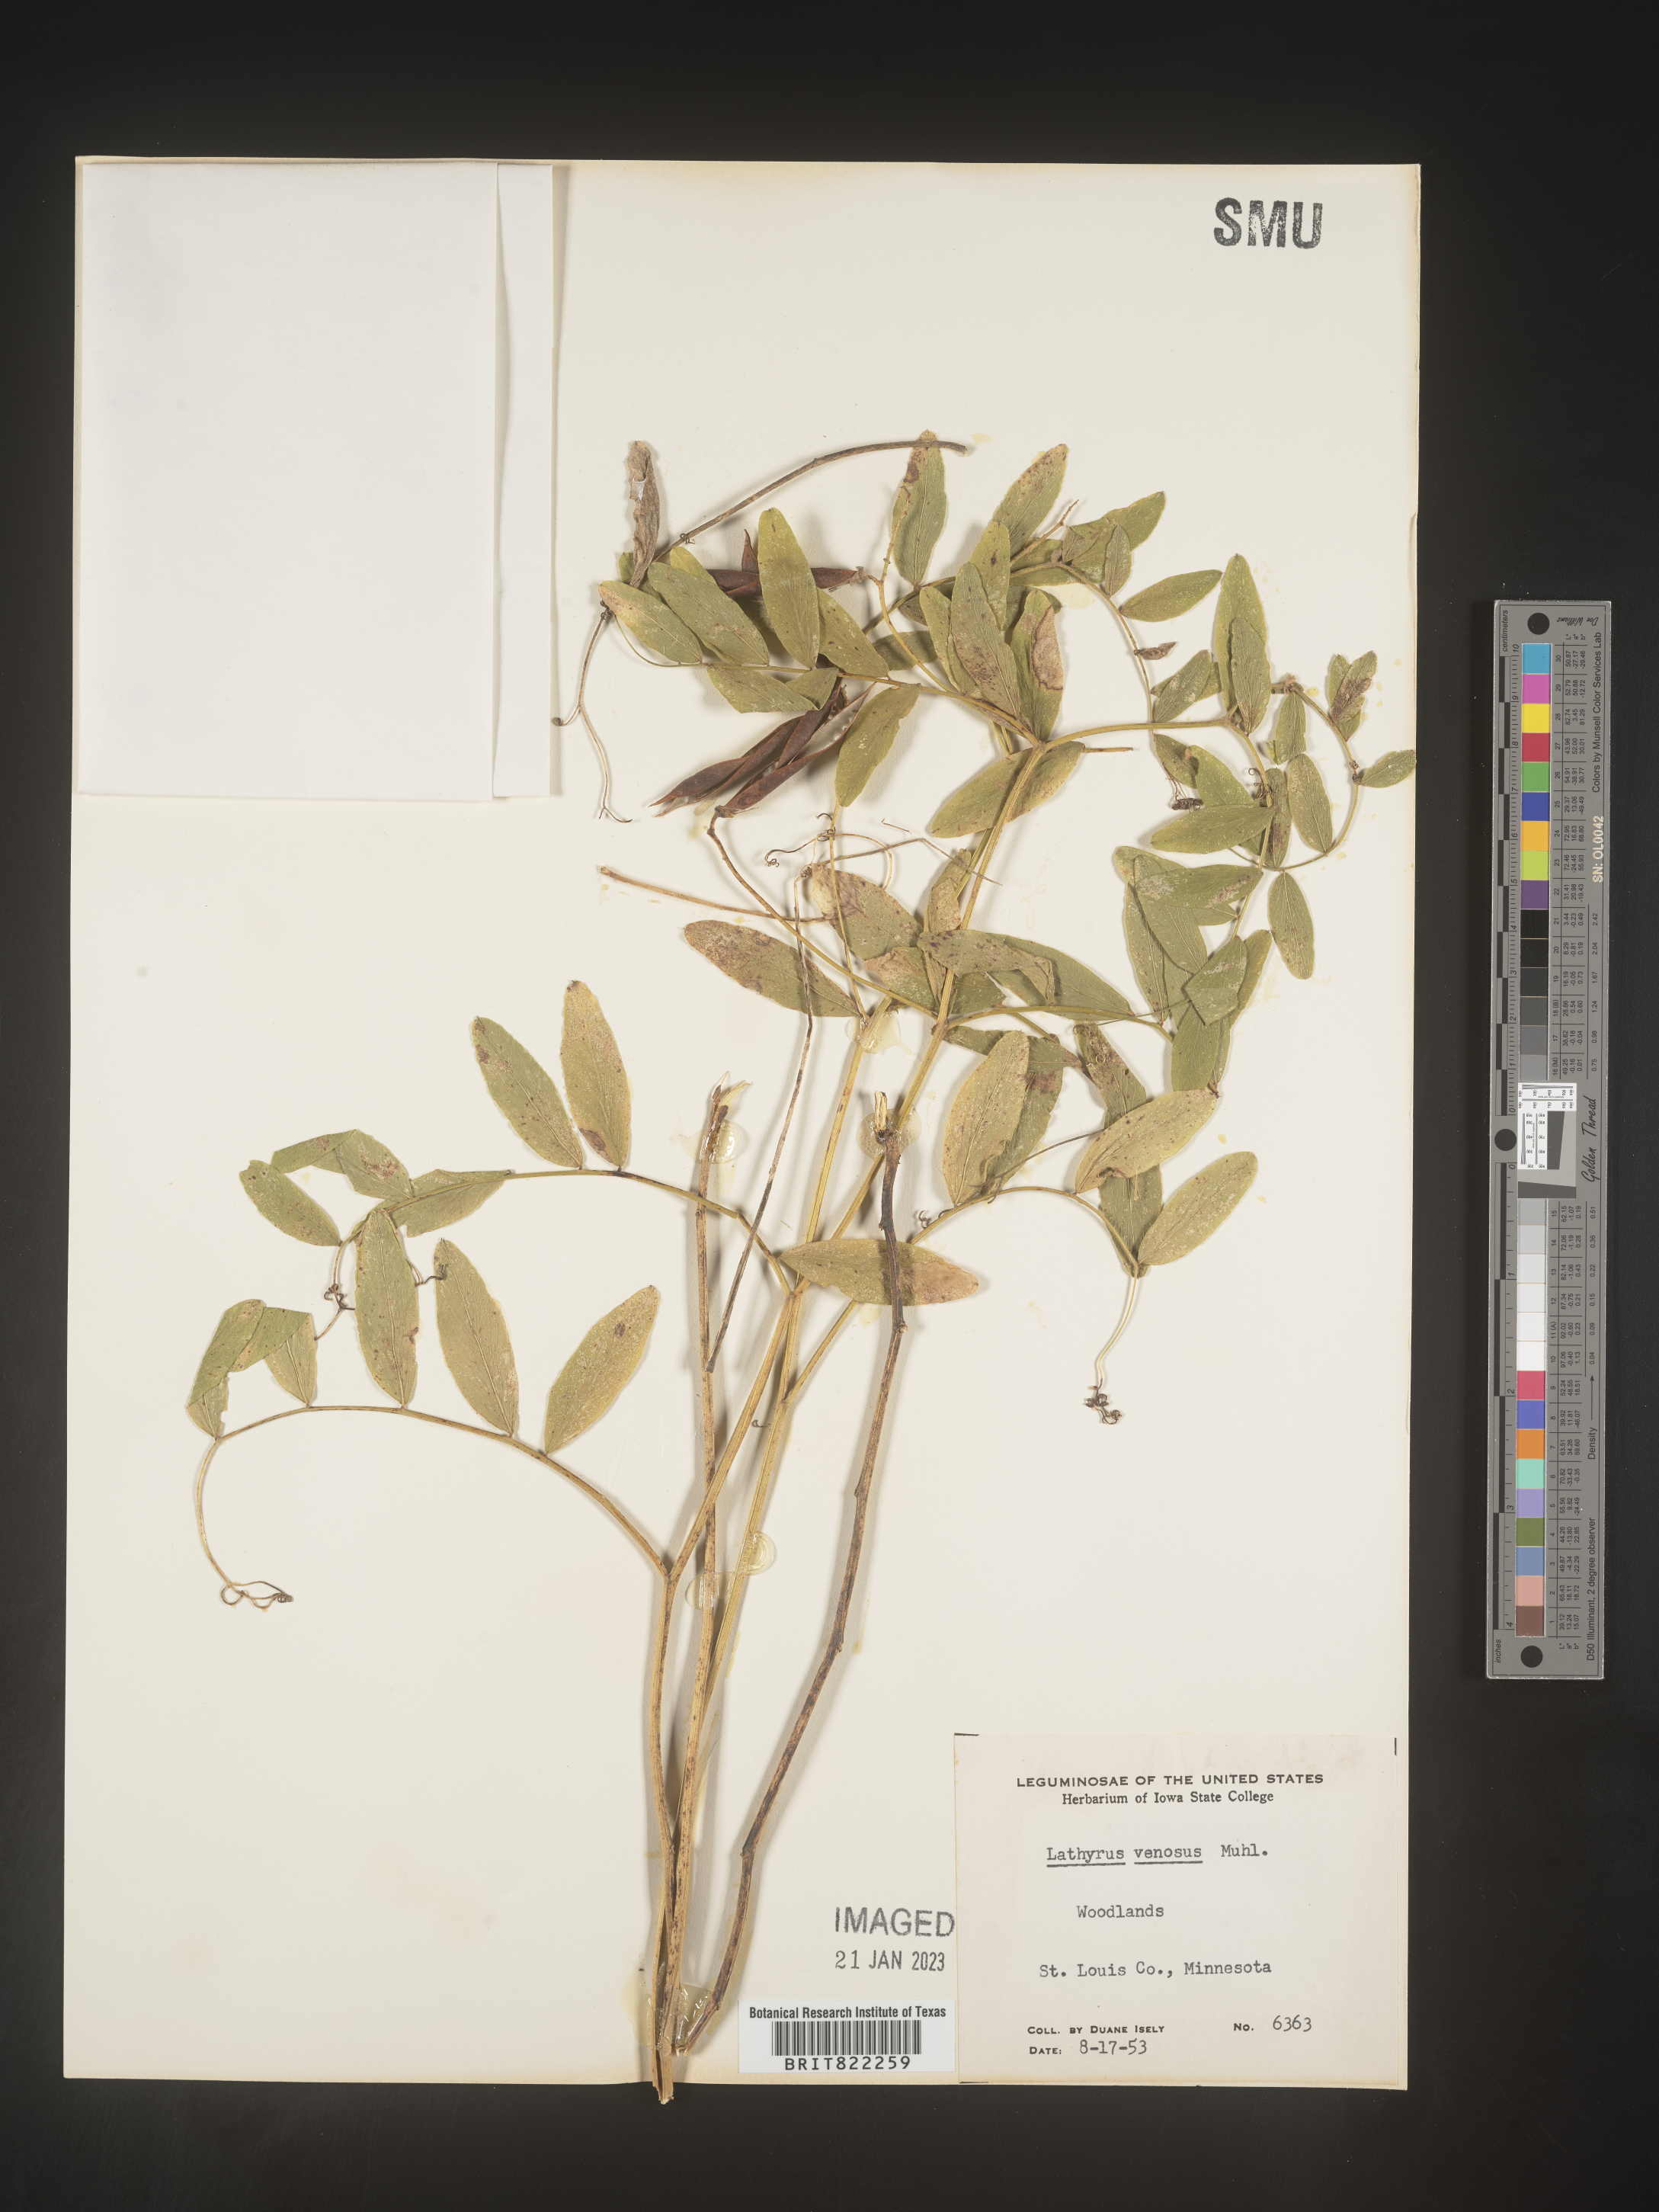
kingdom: Plantae
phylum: Tracheophyta
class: Magnoliopsida
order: Fabales
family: Fabaceae
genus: Lathyrus
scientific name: Lathyrus venosus
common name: Forest-pea
